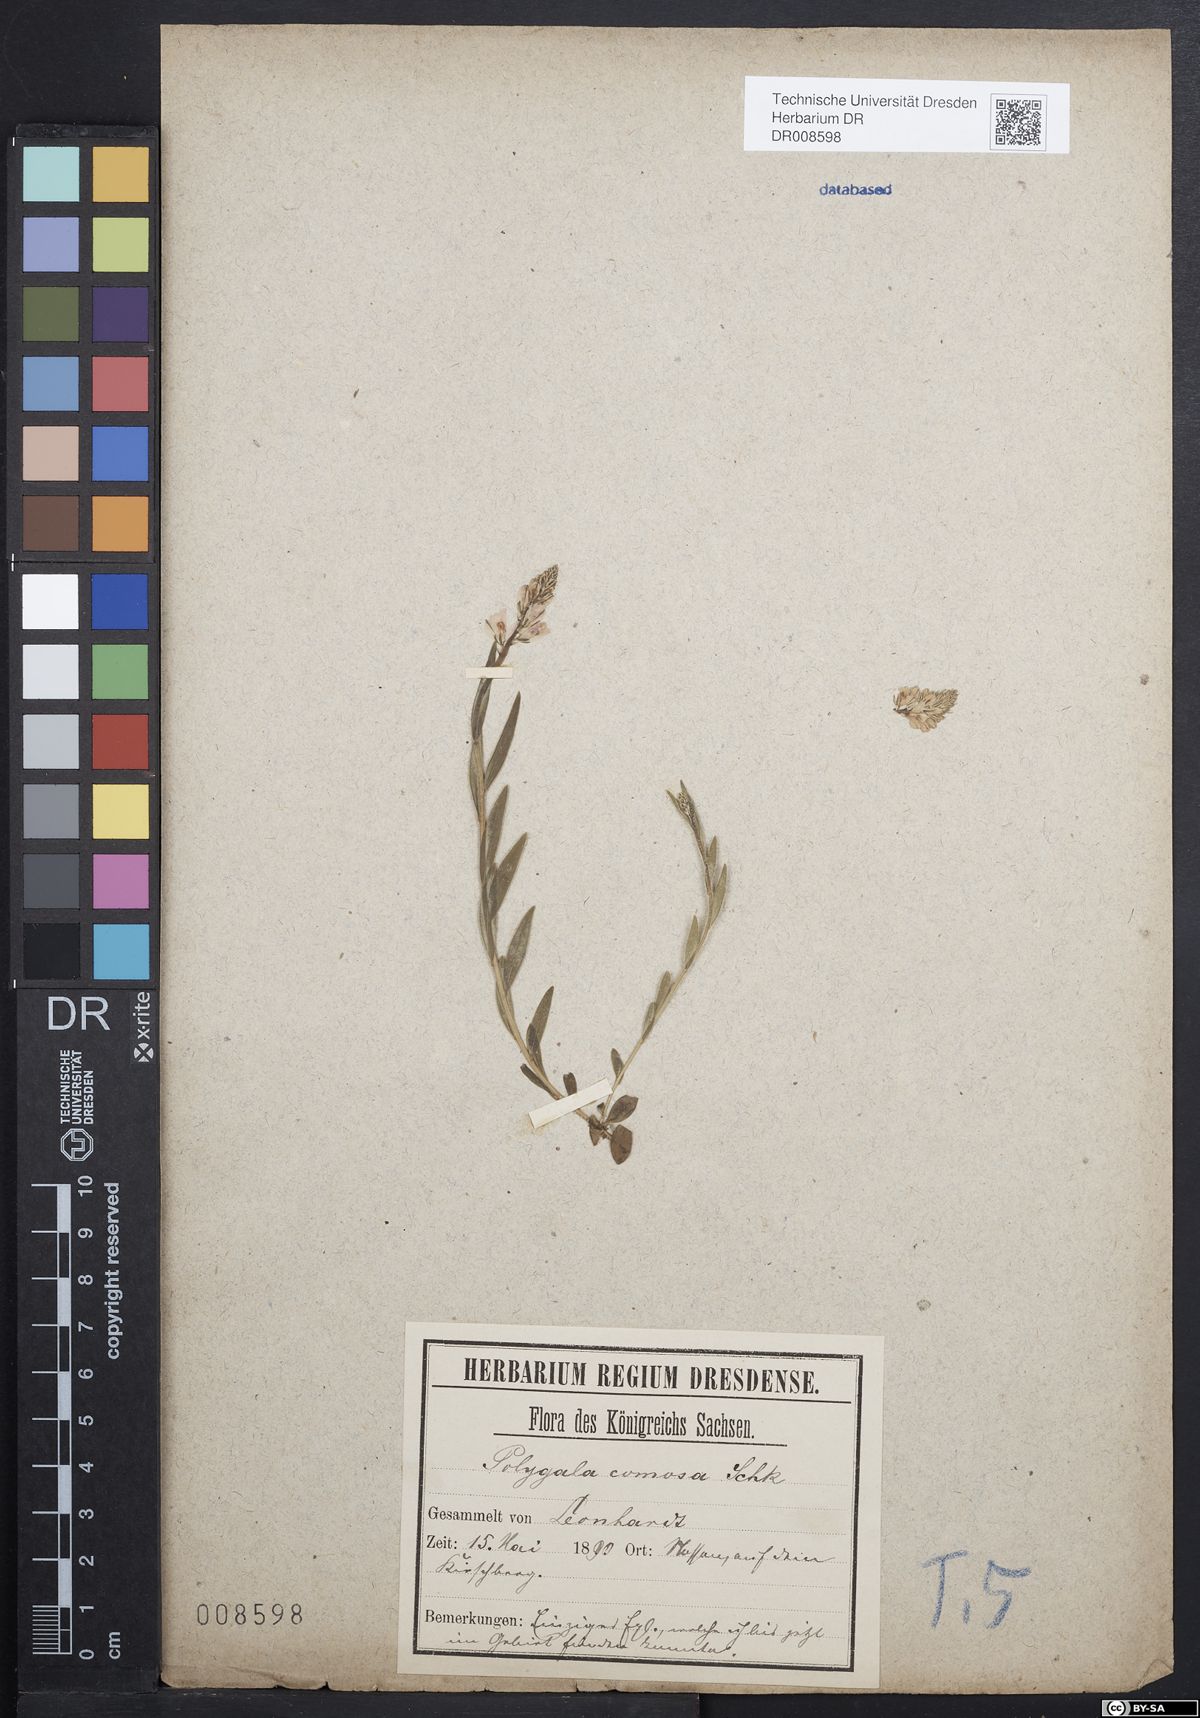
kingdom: Plantae
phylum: Tracheophyta
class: Magnoliopsida
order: Fabales
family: Polygalaceae
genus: Polygala
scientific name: Polygala comosa
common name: Tufted milkwort
